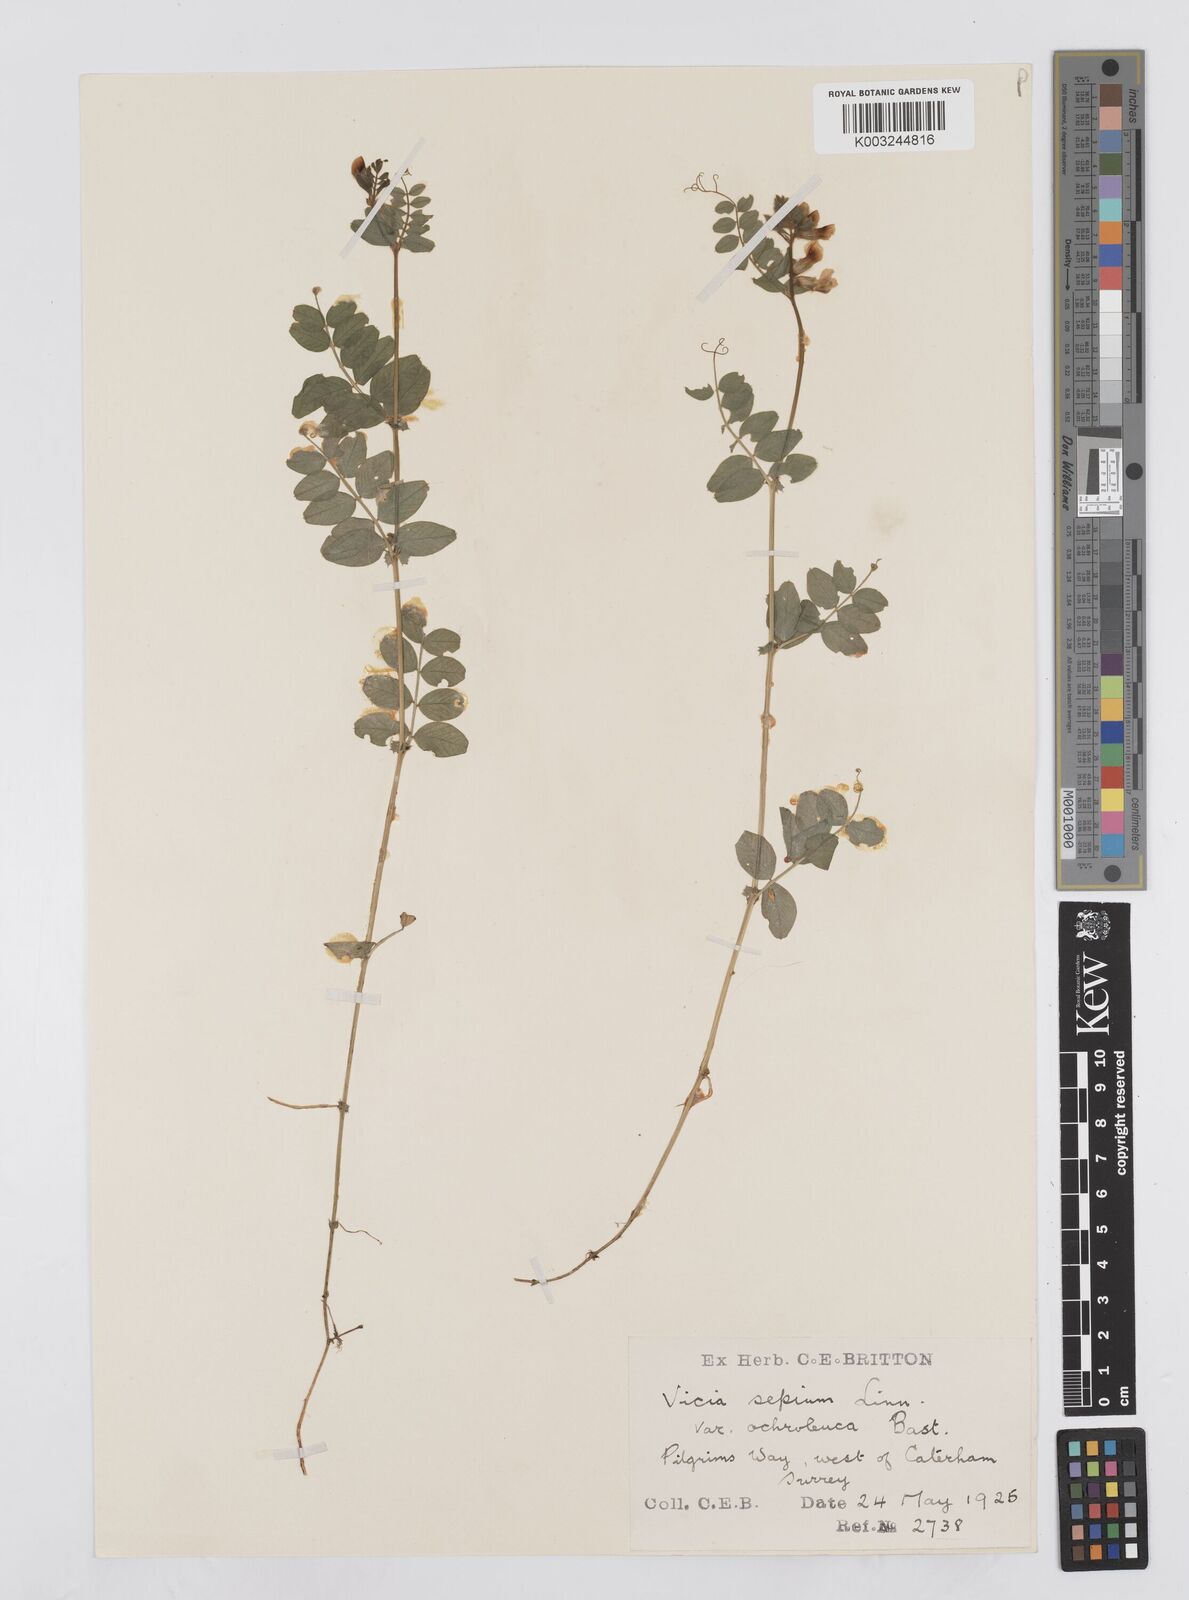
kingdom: Plantae
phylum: Tracheophyta
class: Magnoliopsida
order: Fabales
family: Fabaceae
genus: Vicia
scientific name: Vicia sepium
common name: Bush vetch
